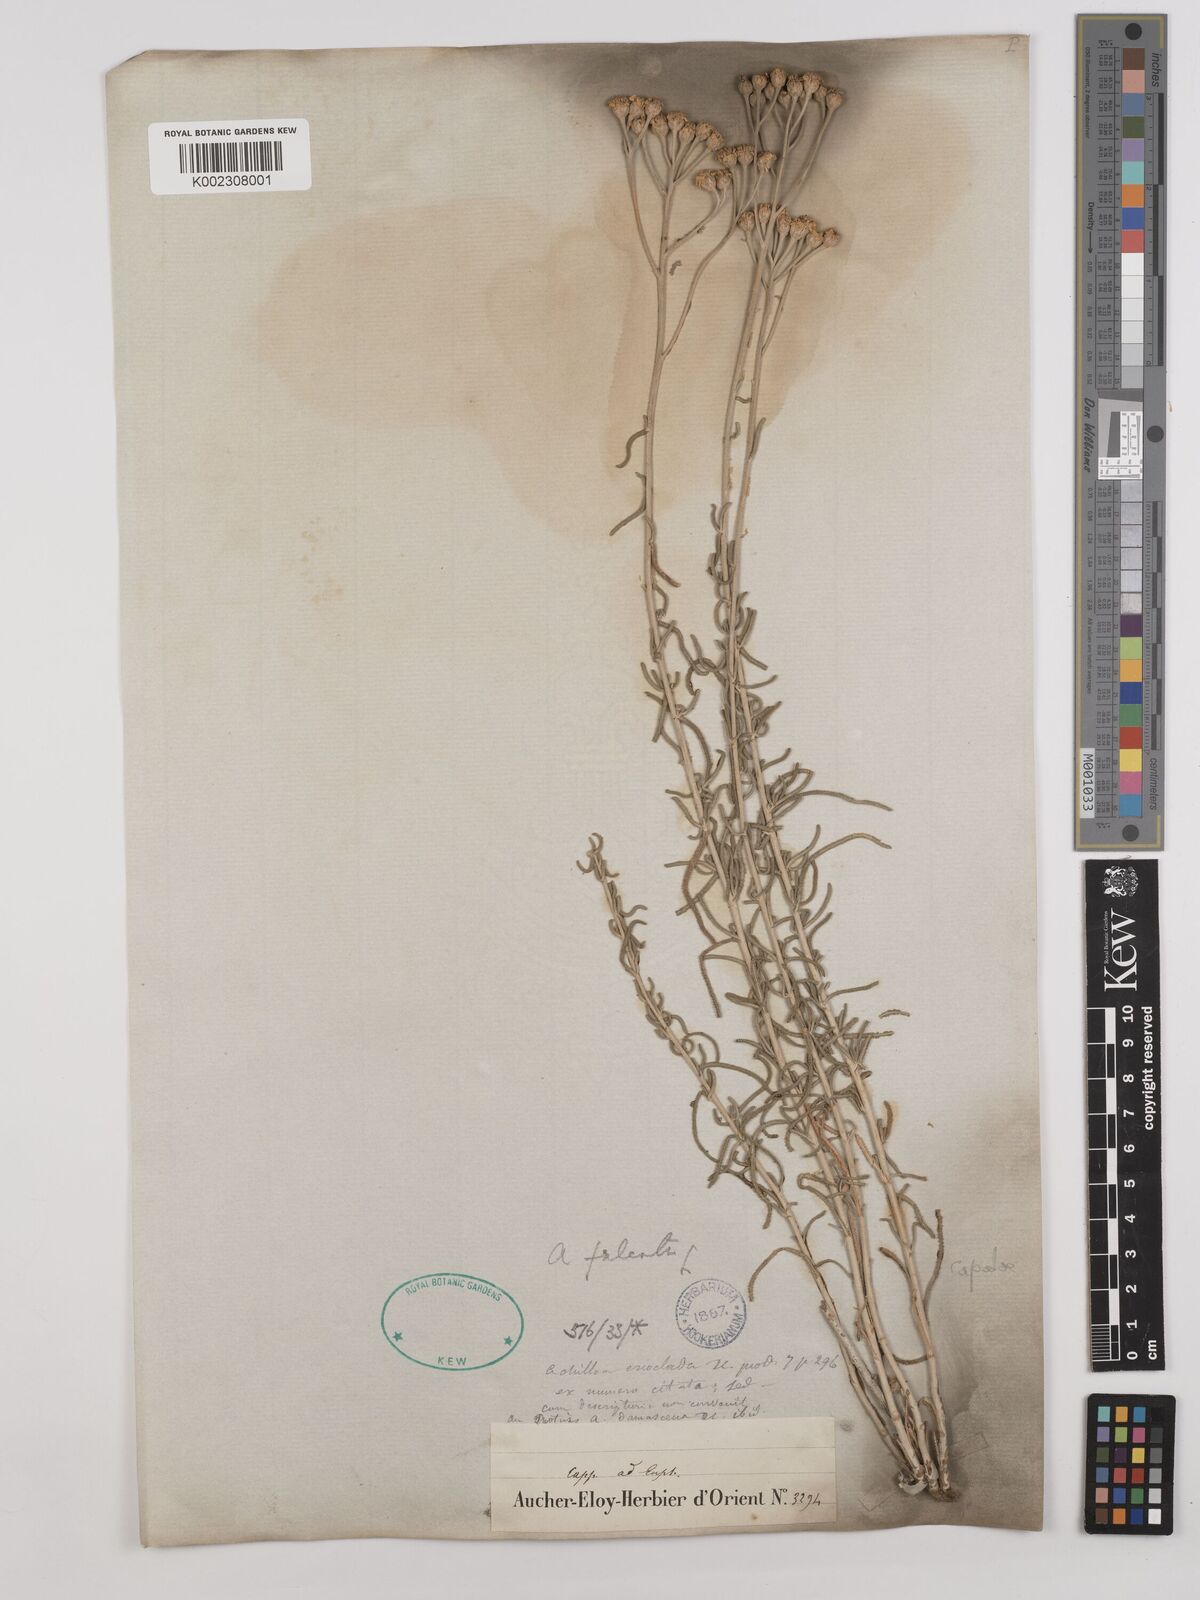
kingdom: Plantae
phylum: Tracheophyta
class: Magnoliopsida
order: Asterales
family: Asteraceae
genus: Achillea
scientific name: Achillea chamaemelifolia
